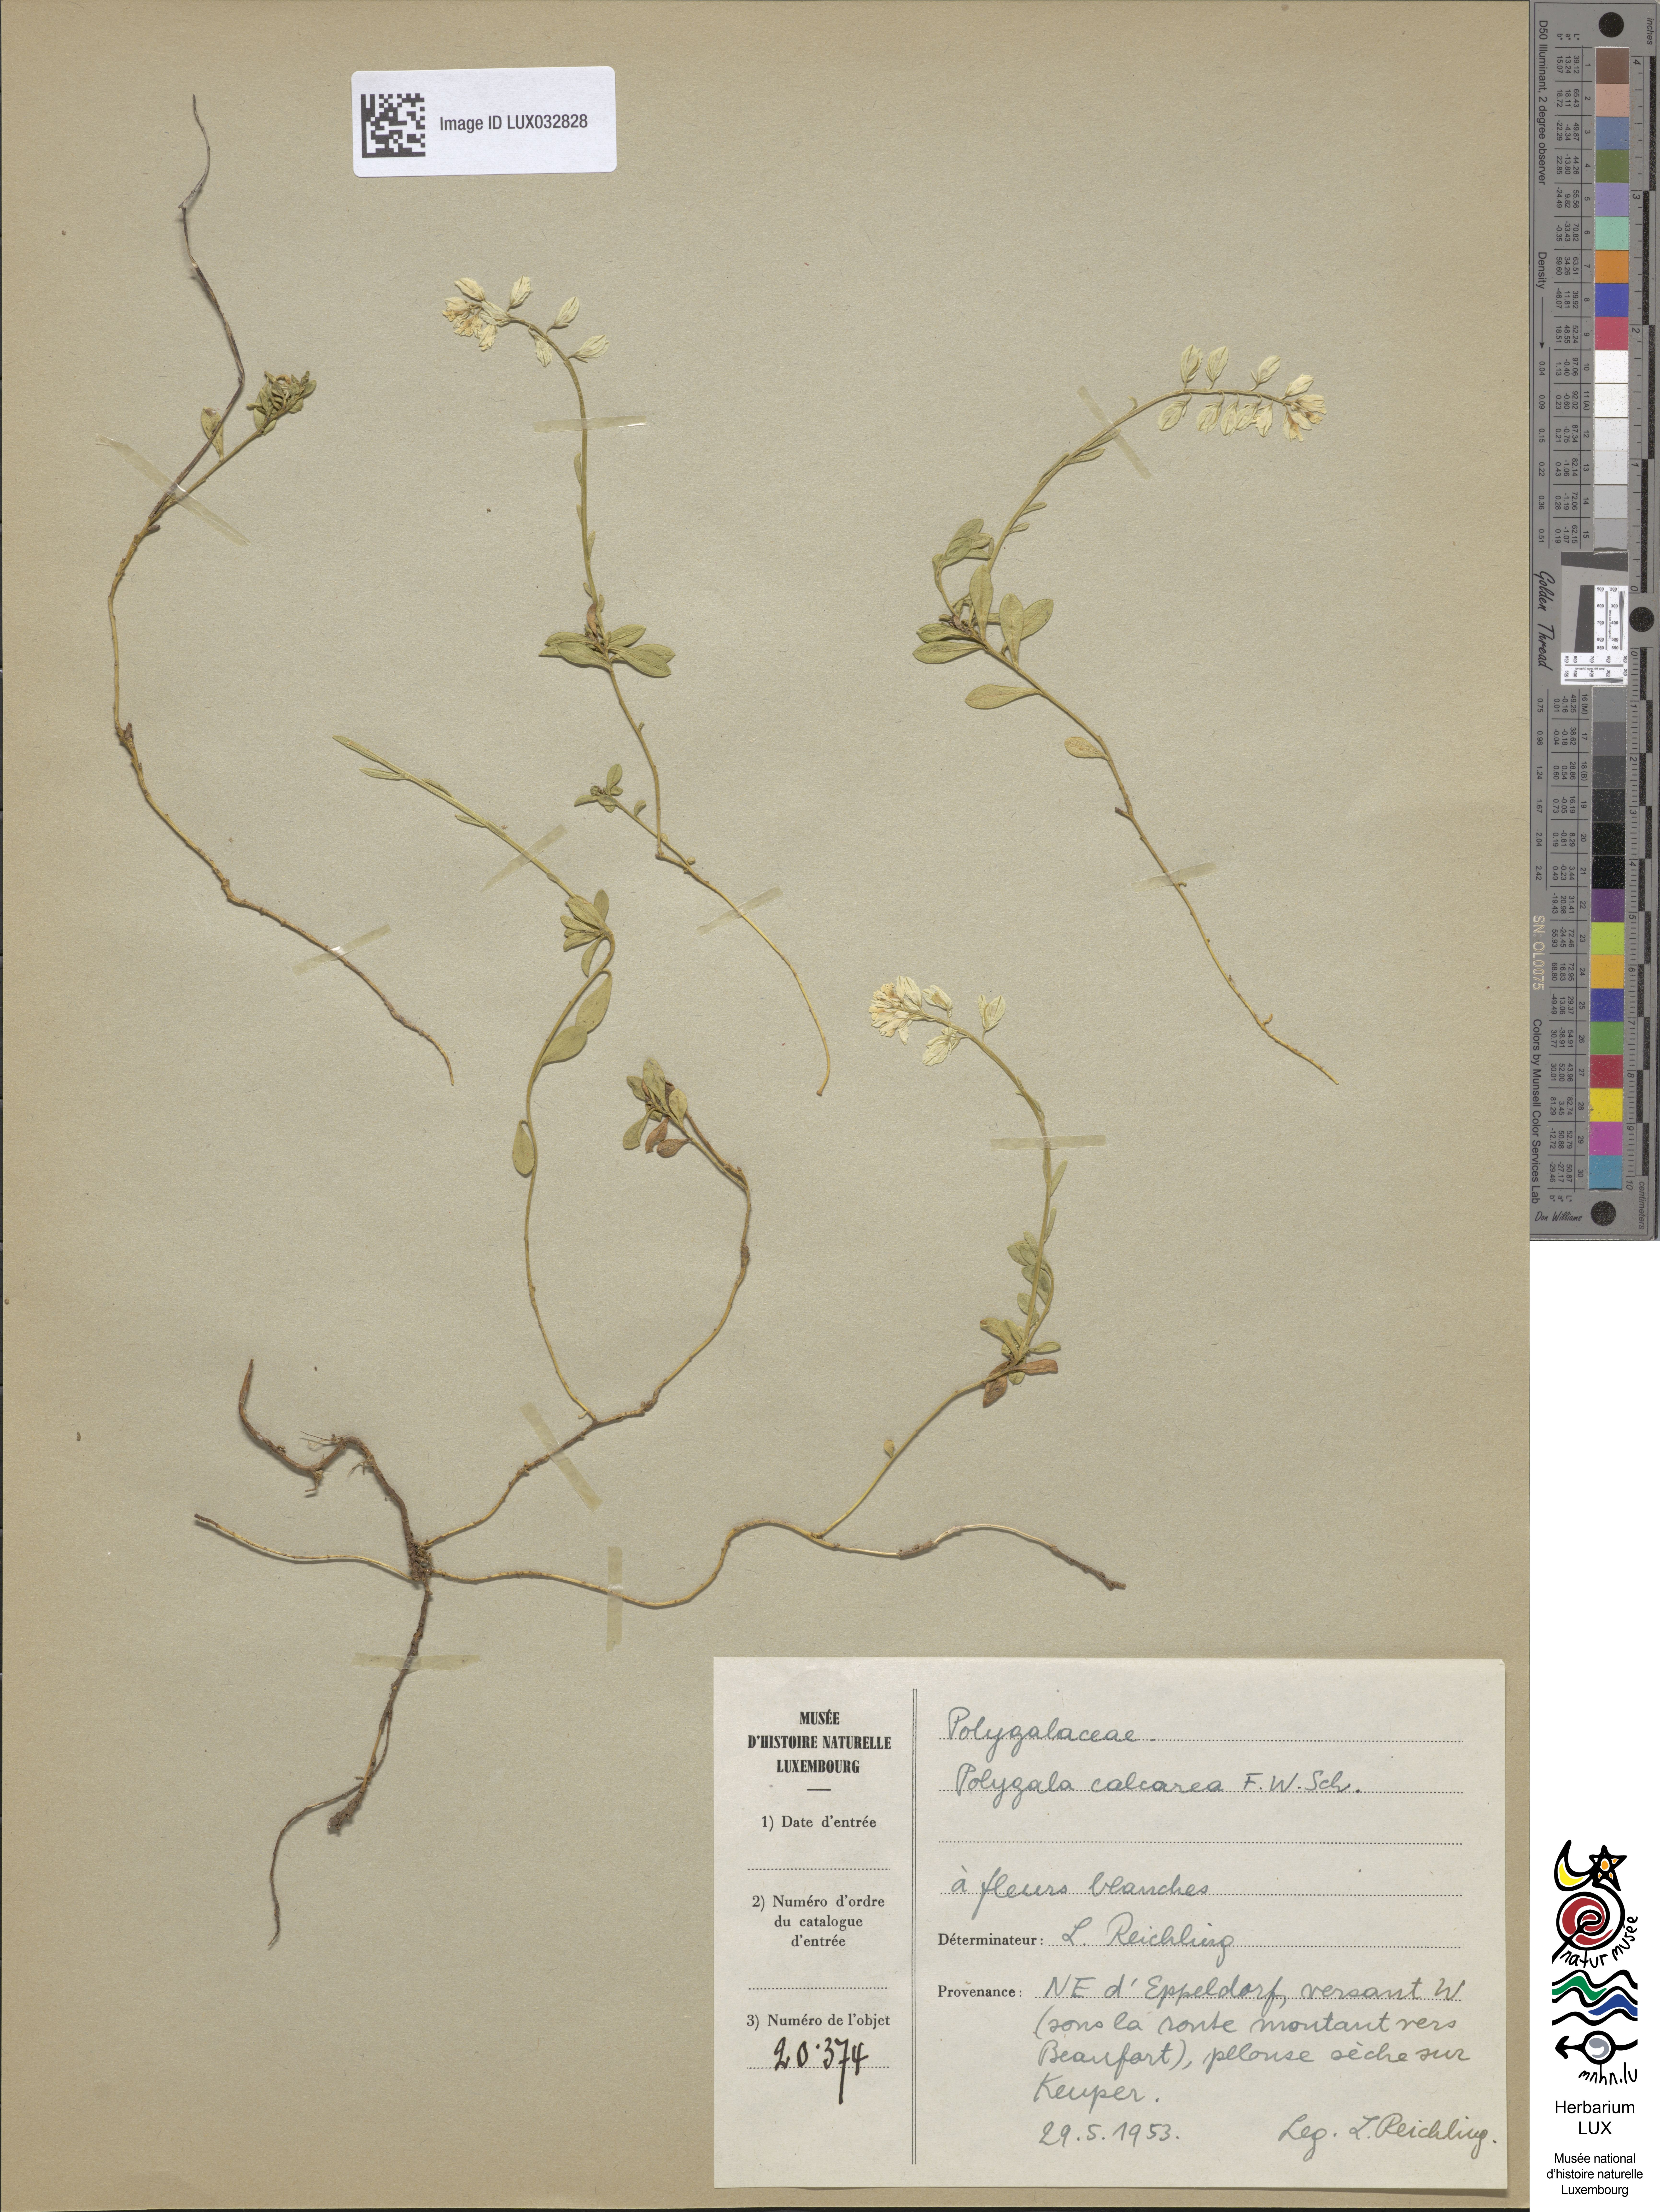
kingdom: Plantae
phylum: Tracheophyta
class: Magnoliopsida
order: Fabales
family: Polygalaceae
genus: Polygala
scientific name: Polygala calcarea
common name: Chalk milkwort
